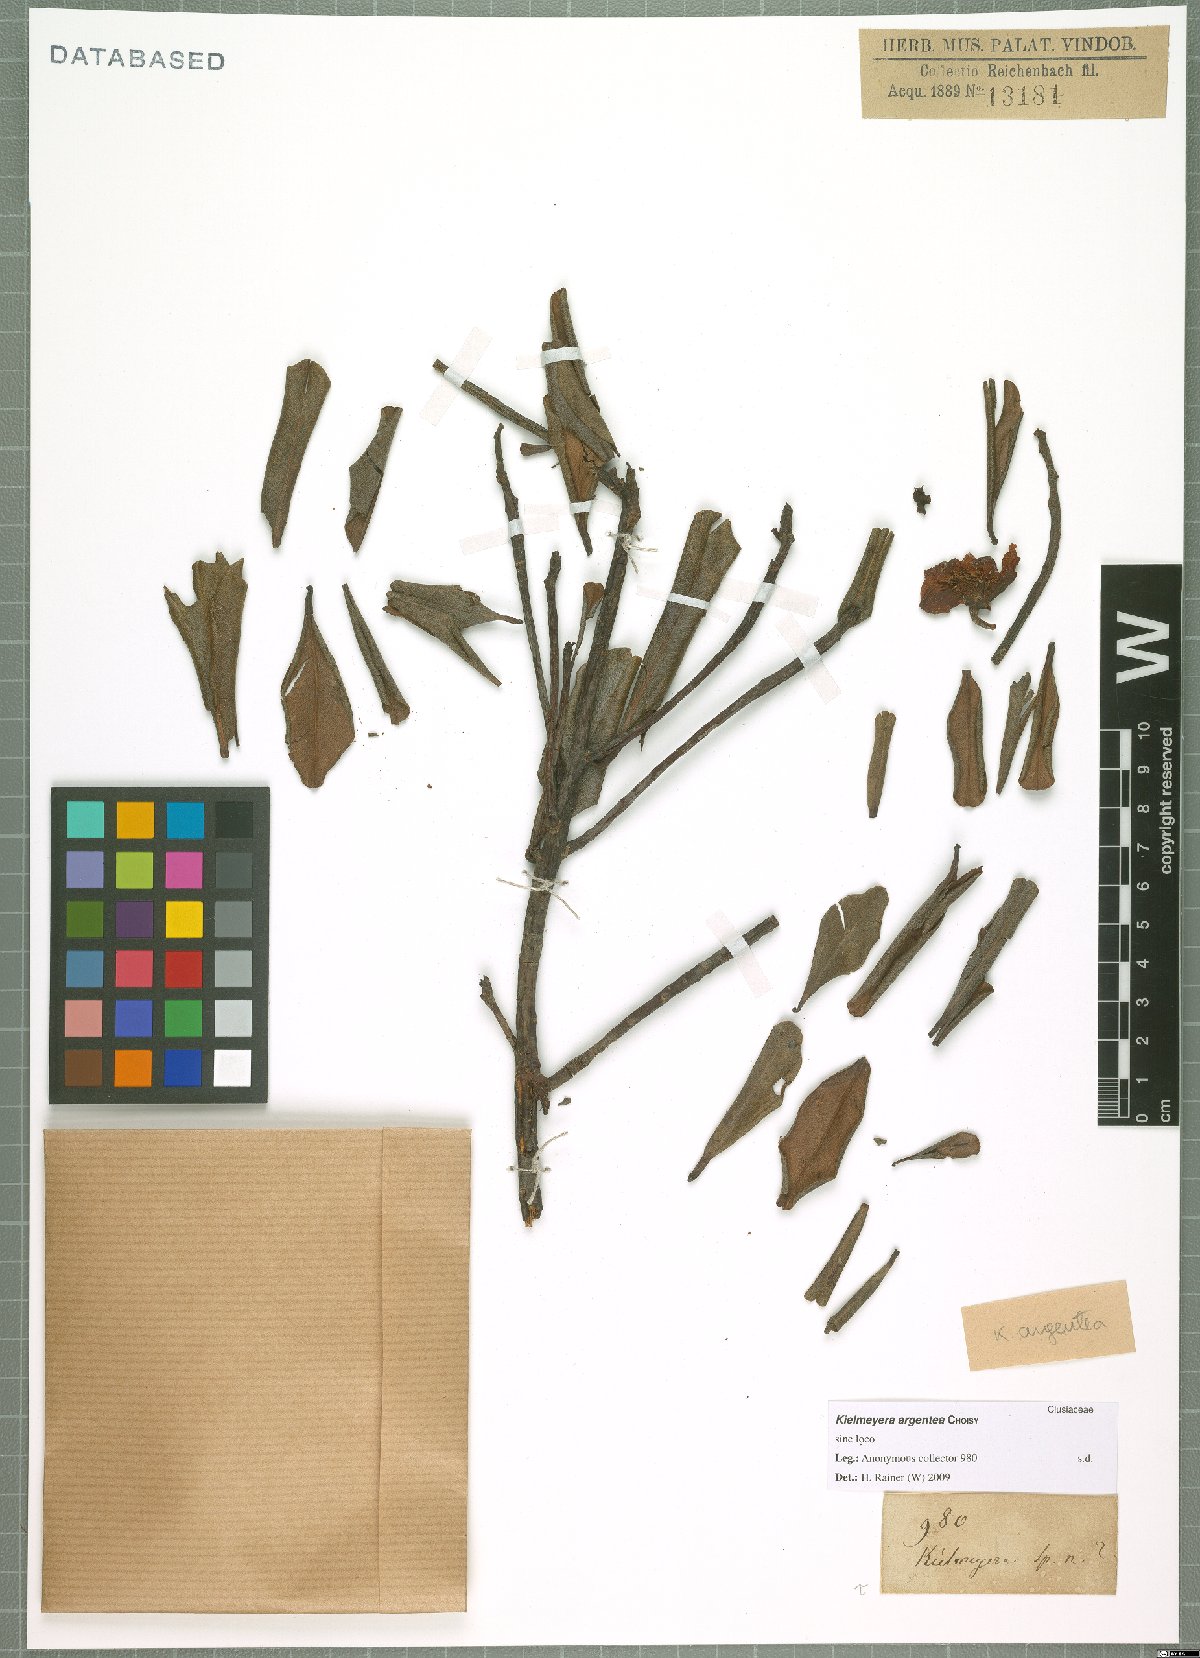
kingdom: Plantae
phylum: Tracheophyta
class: Magnoliopsida
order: Malpighiales
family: Calophyllaceae
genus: Kielmeyera
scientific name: Kielmeyera argentea
